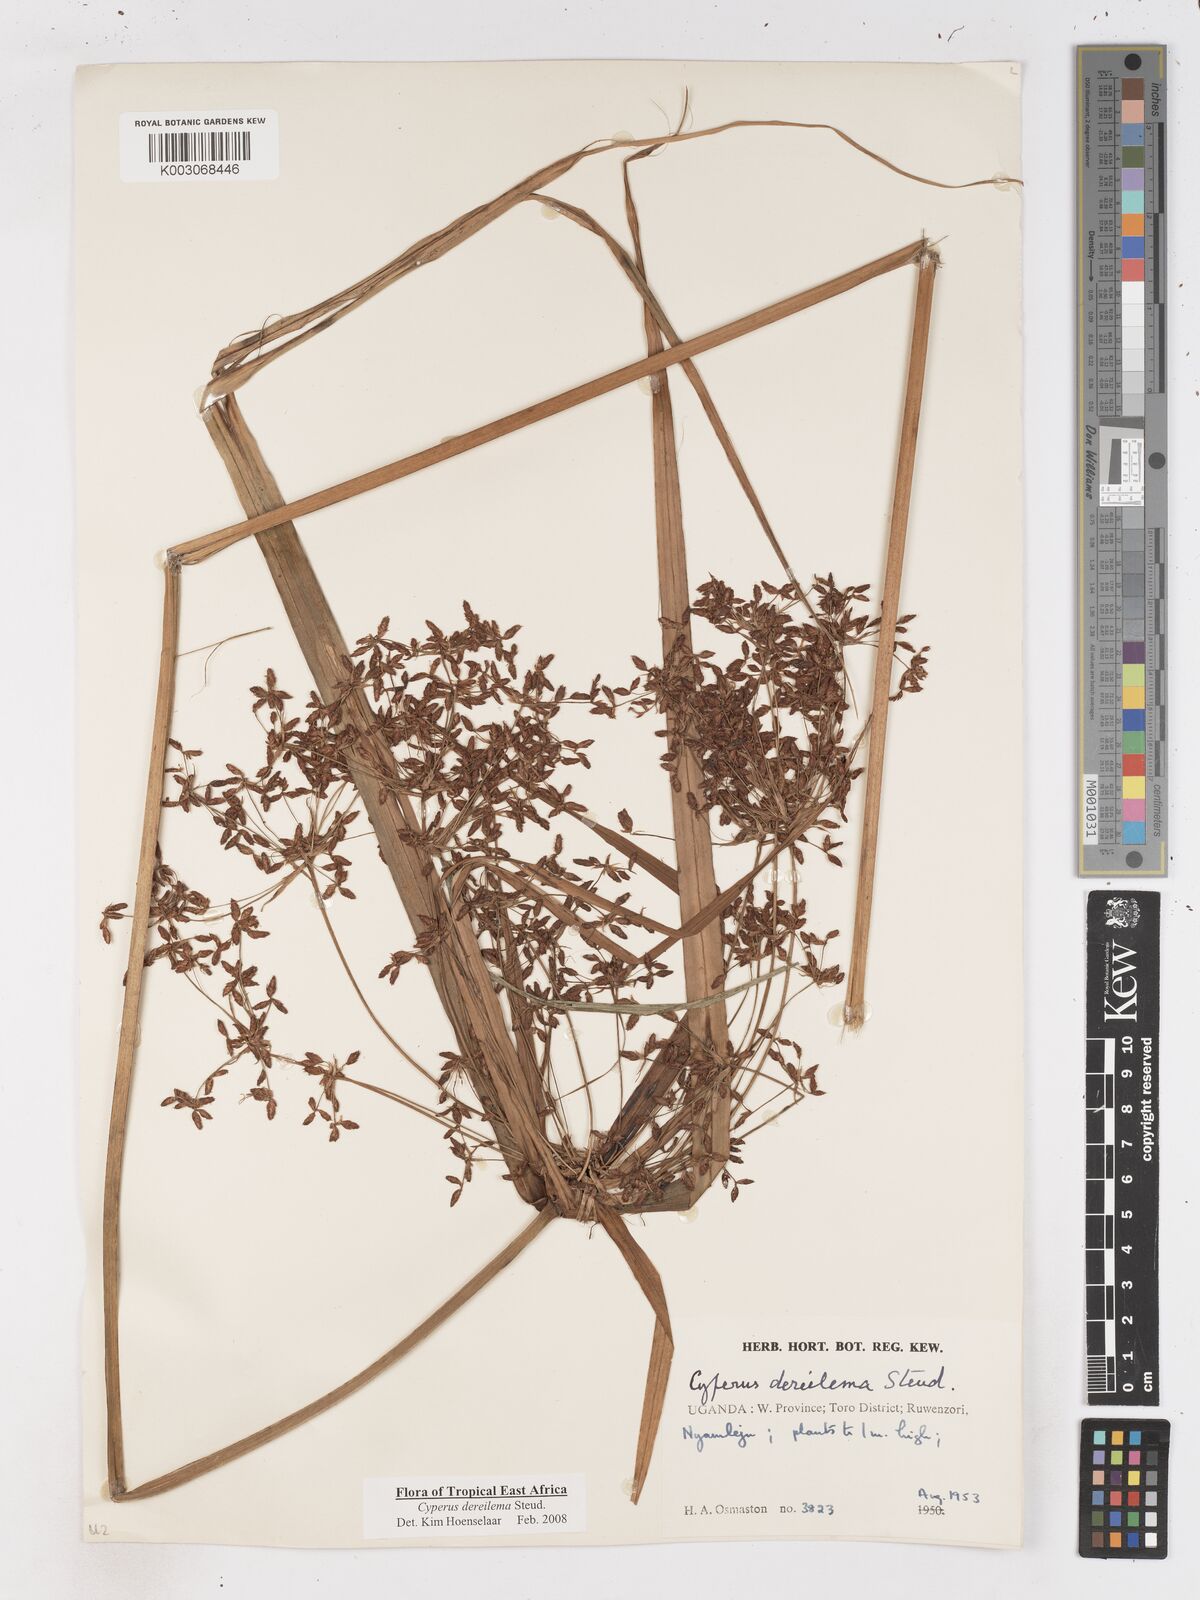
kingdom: Plantae
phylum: Tracheophyta
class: Liliopsida
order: Poales
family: Cyperaceae
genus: Cyperus
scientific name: Cyperus derreilema
